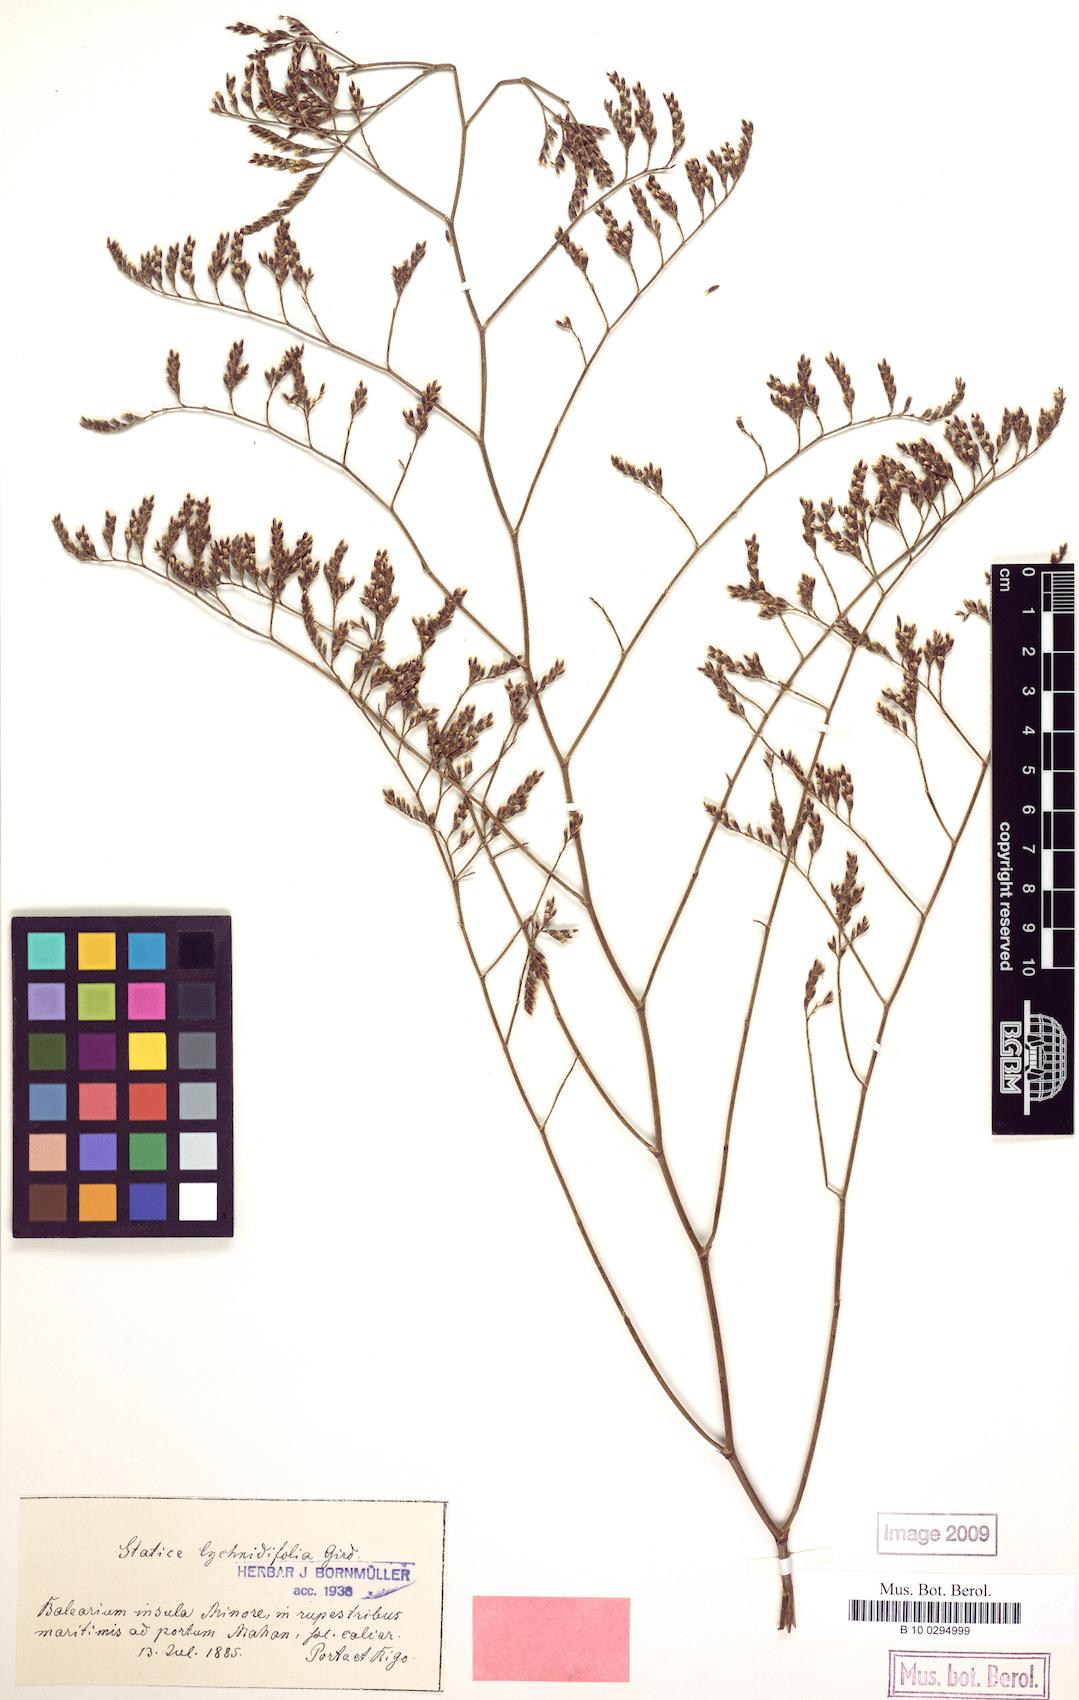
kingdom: Plantae
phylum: Tracheophyta
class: Magnoliopsida
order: Caryophyllales
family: Plumbaginaceae
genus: Limonium
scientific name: Limonium auriculae-ursifolium
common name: Broad-leaved sea-lavender
